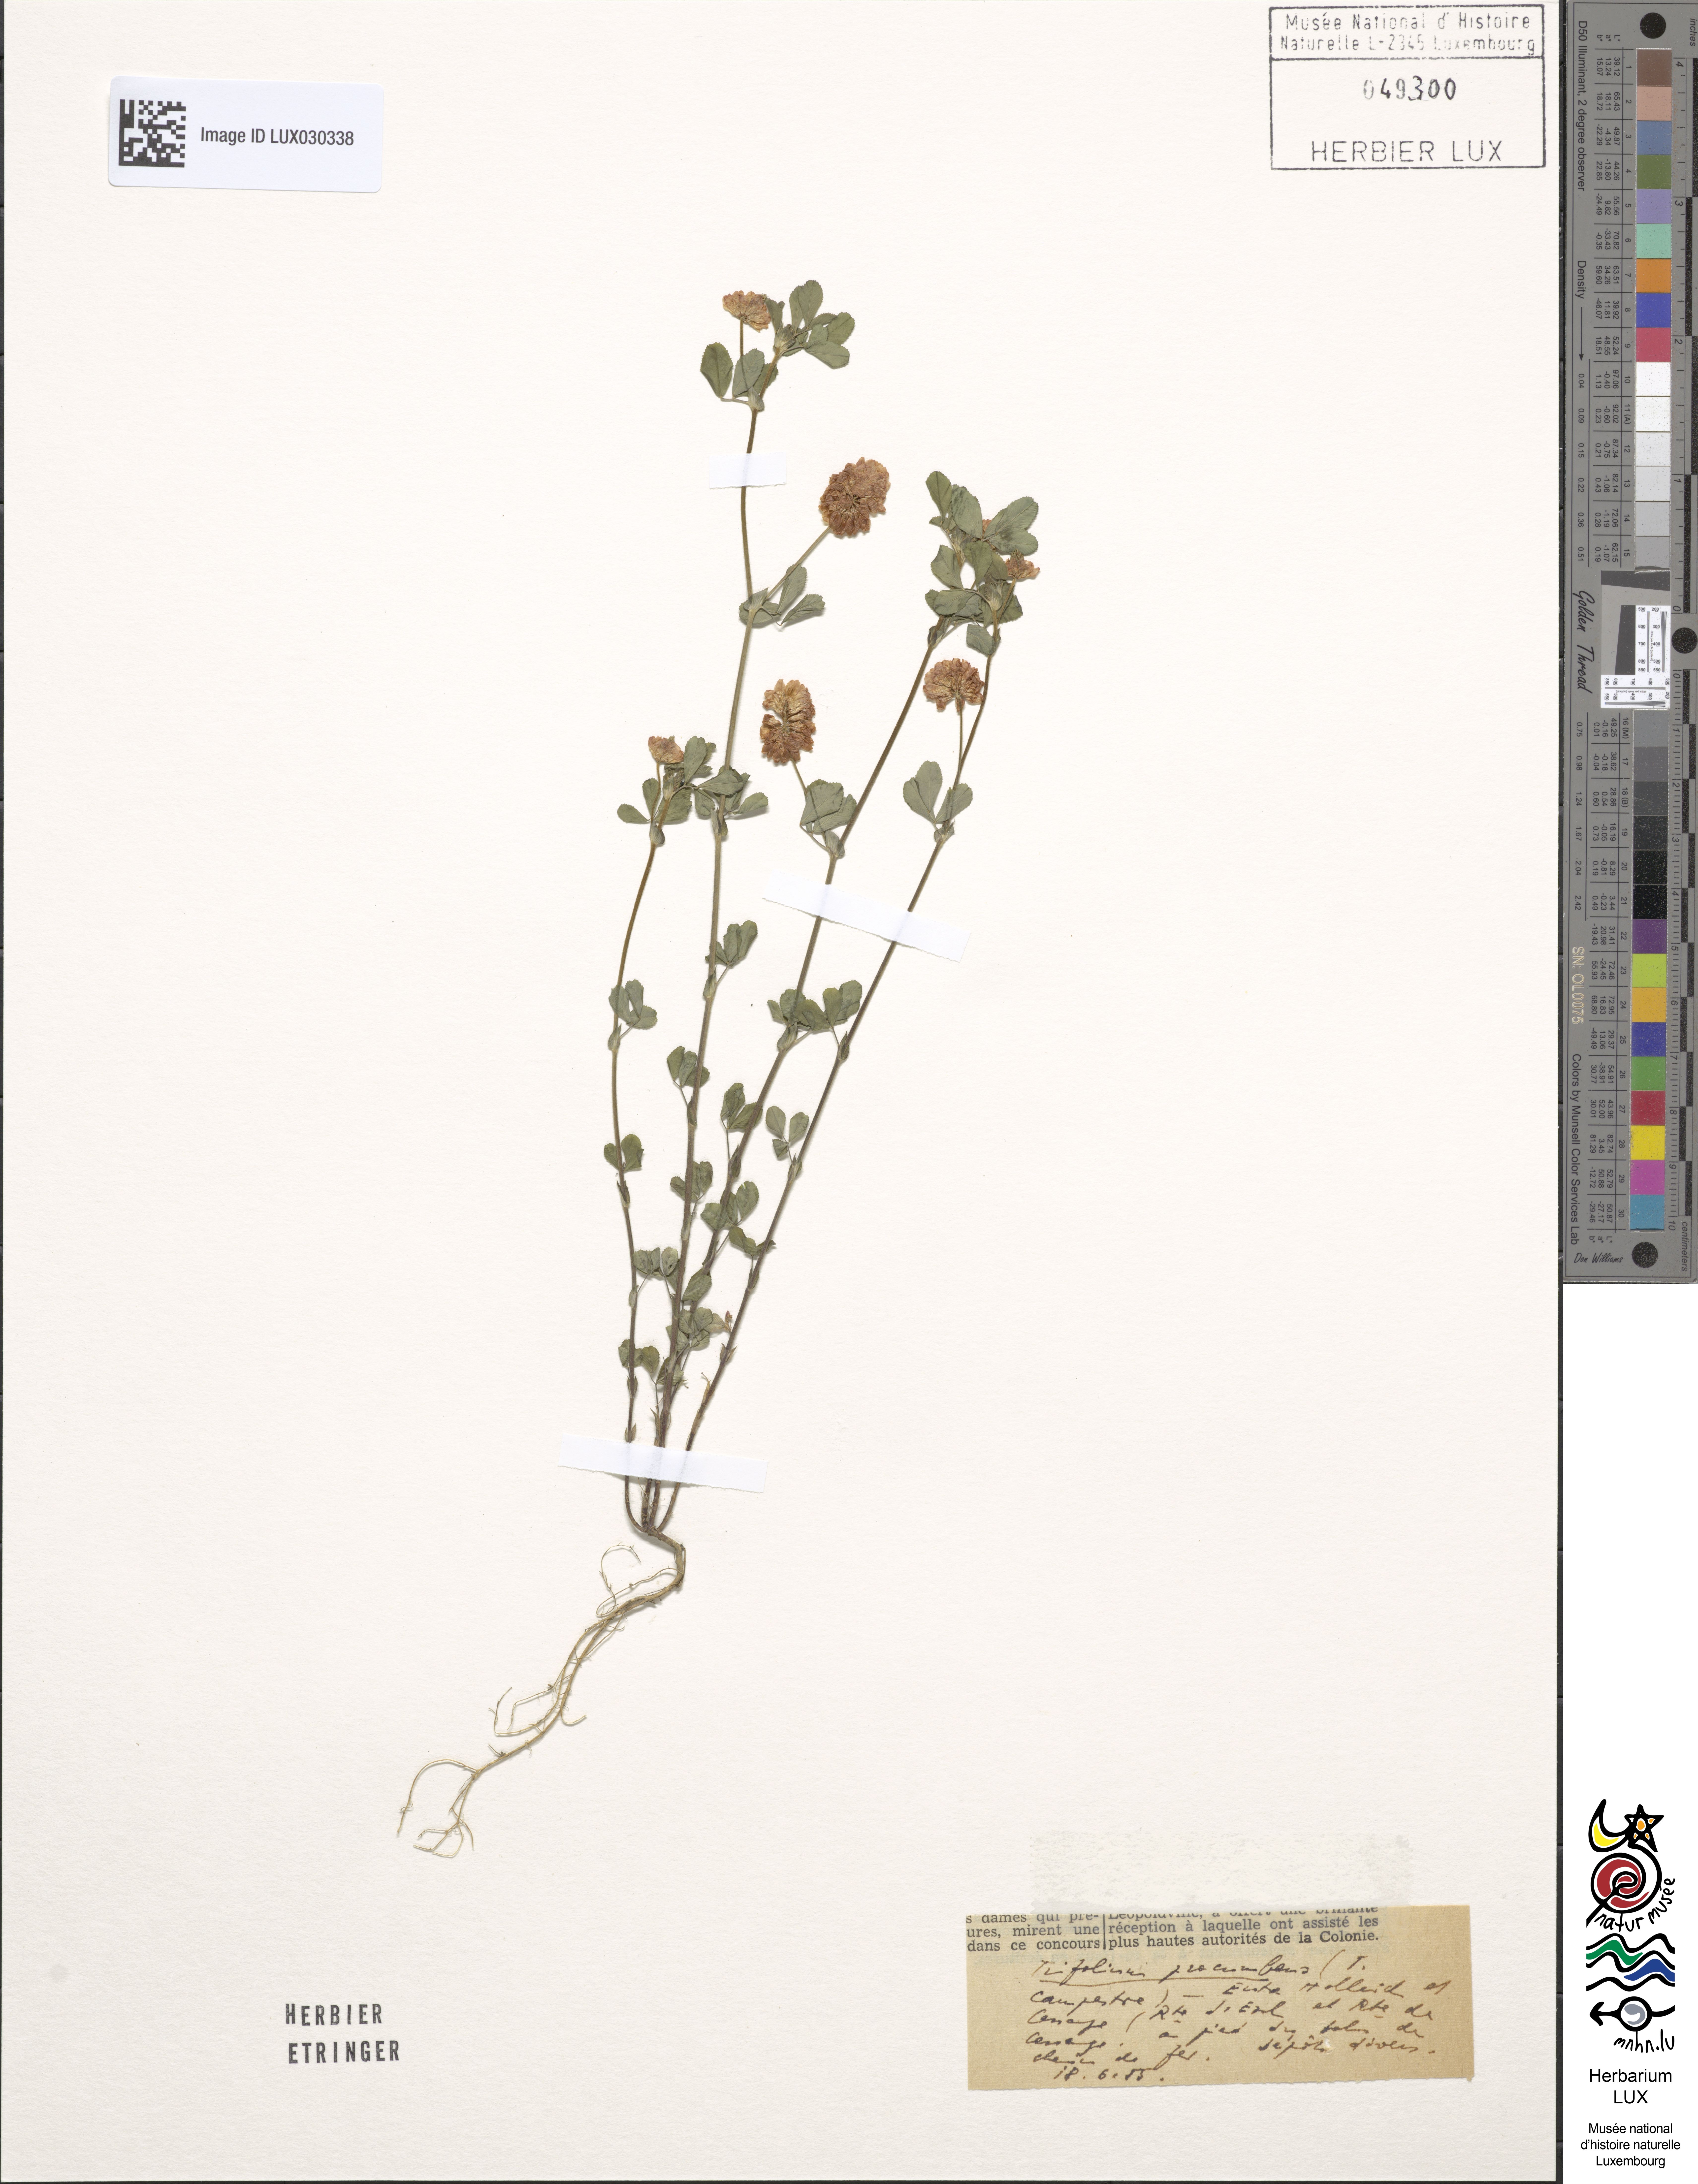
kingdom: Plantae
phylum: Tracheophyta
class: Magnoliopsida
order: Fabales
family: Fabaceae
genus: Trifolium
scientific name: Trifolium campestre
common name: Field clover
